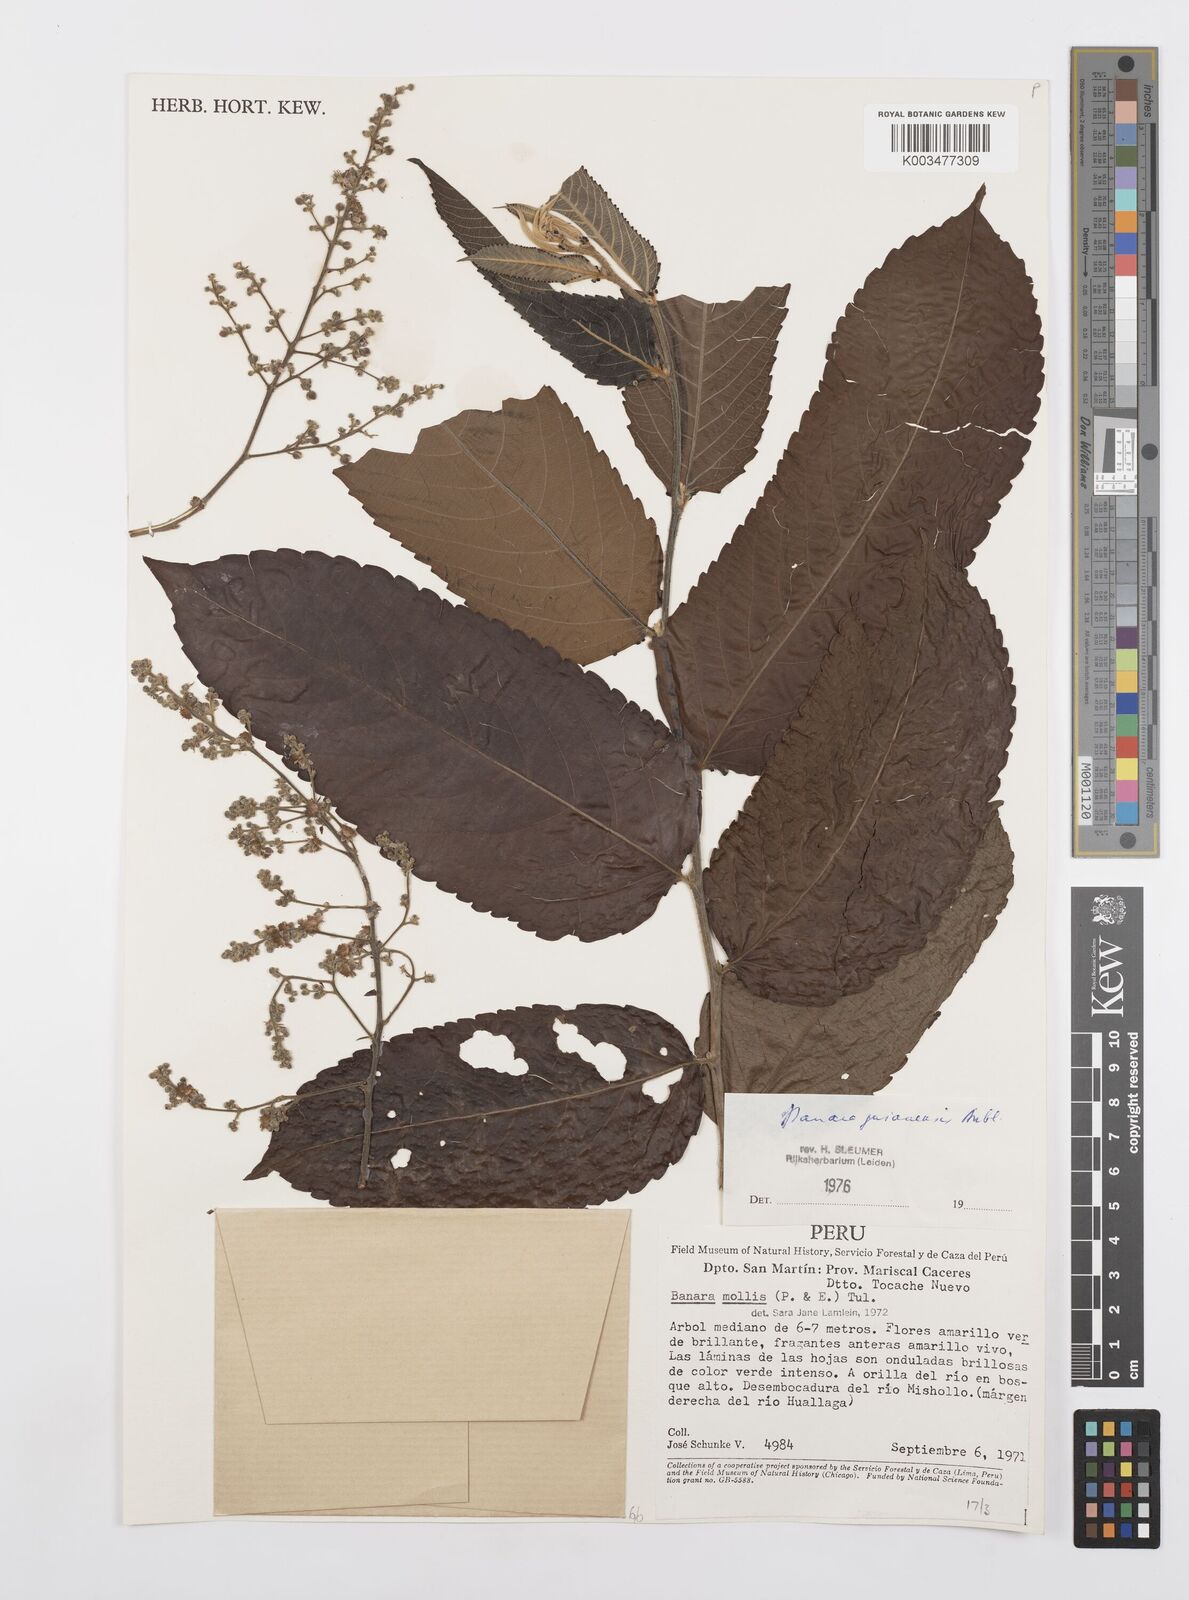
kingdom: Plantae
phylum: Tracheophyta
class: Magnoliopsida
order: Malpighiales
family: Salicaceae
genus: Banara
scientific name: Banara guianensis
